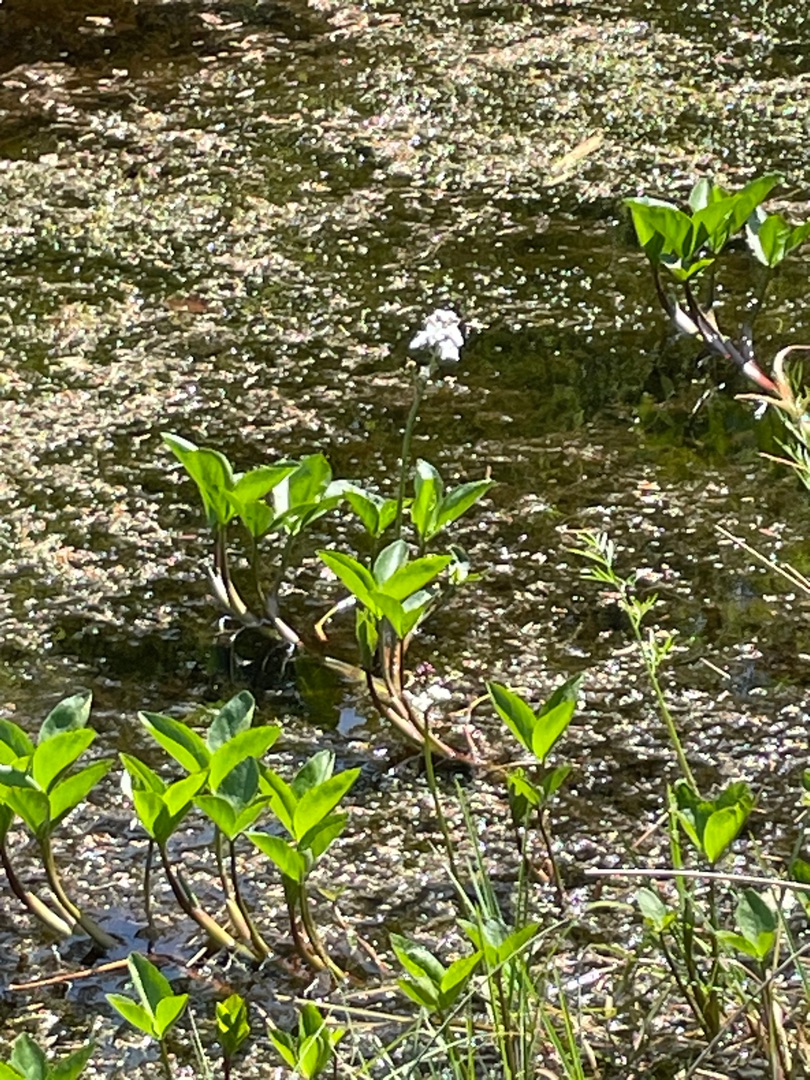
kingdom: Plantae
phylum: Tracheophyta
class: Magnoliopsida
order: Asterales
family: Menyanthaceae
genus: Menyanthes
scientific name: Menyanthes trifoliata
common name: Bukkeblad
